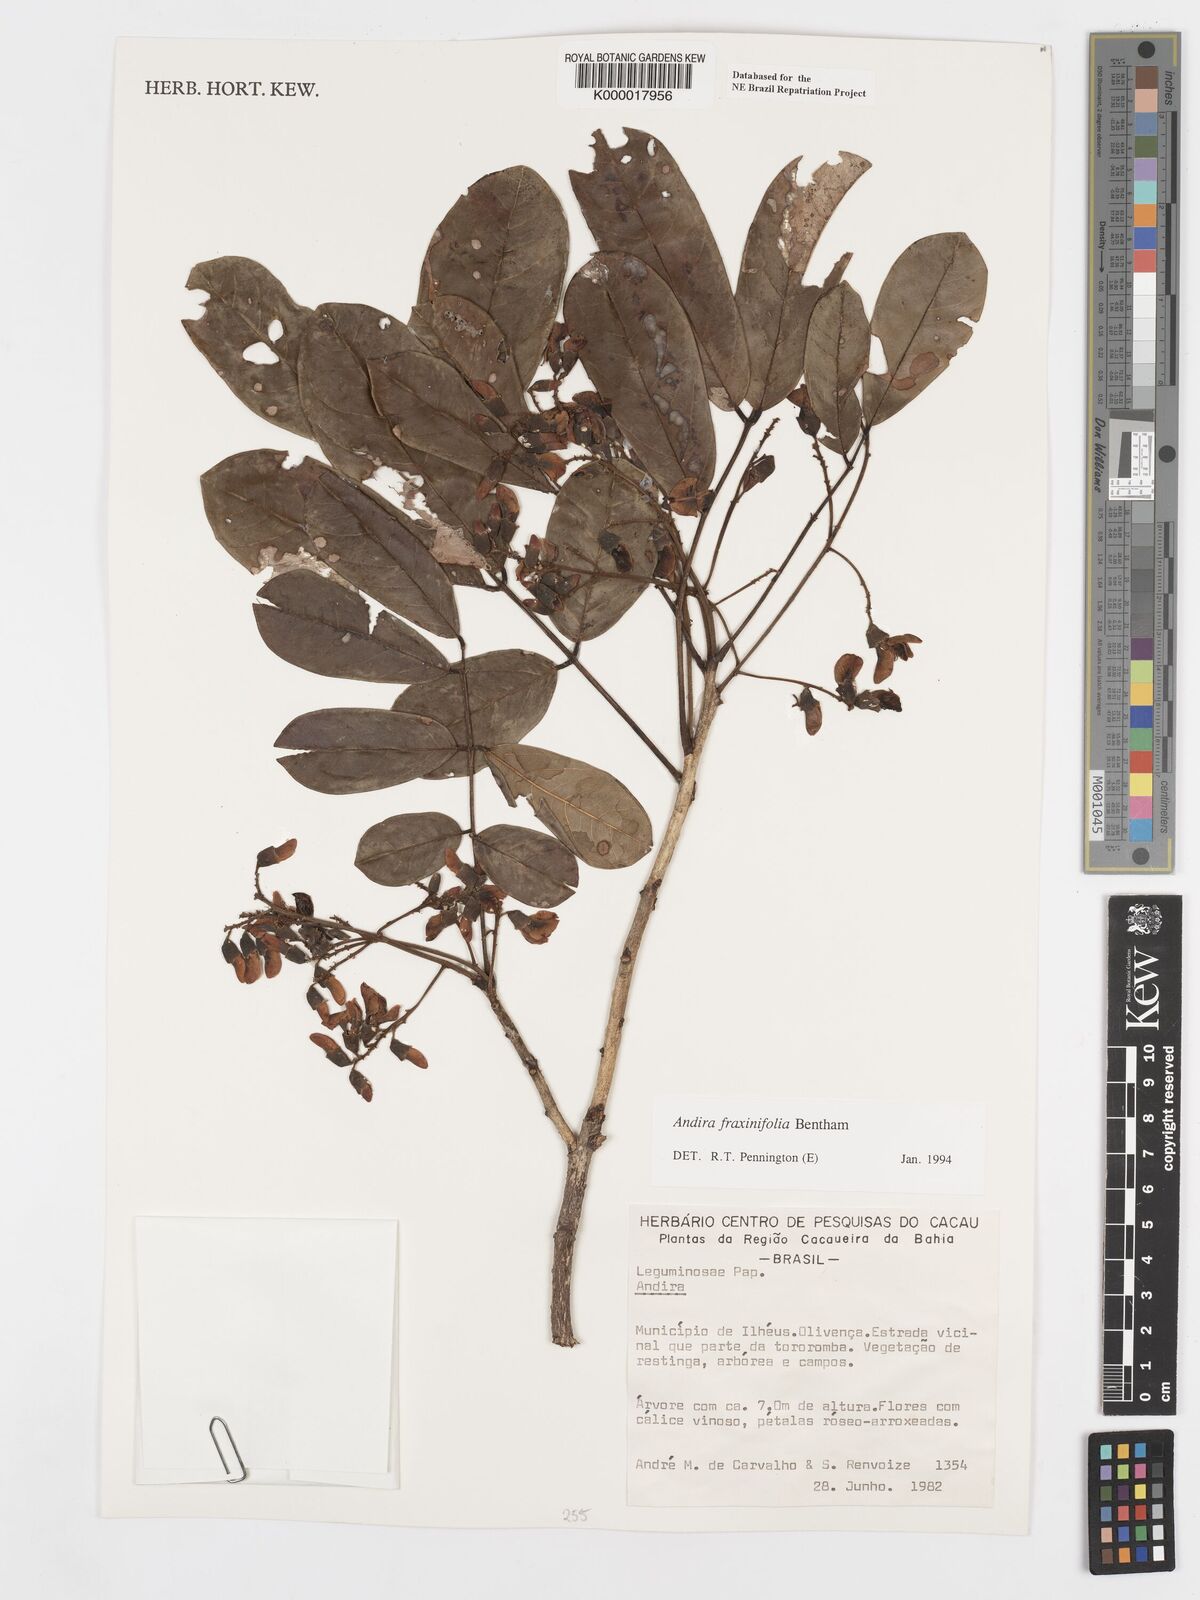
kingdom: Plantae
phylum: Tracheophyta
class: Magnoliopsida
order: Fabales
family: Fabaceae
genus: Andira
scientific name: Andira fraxinifolia
